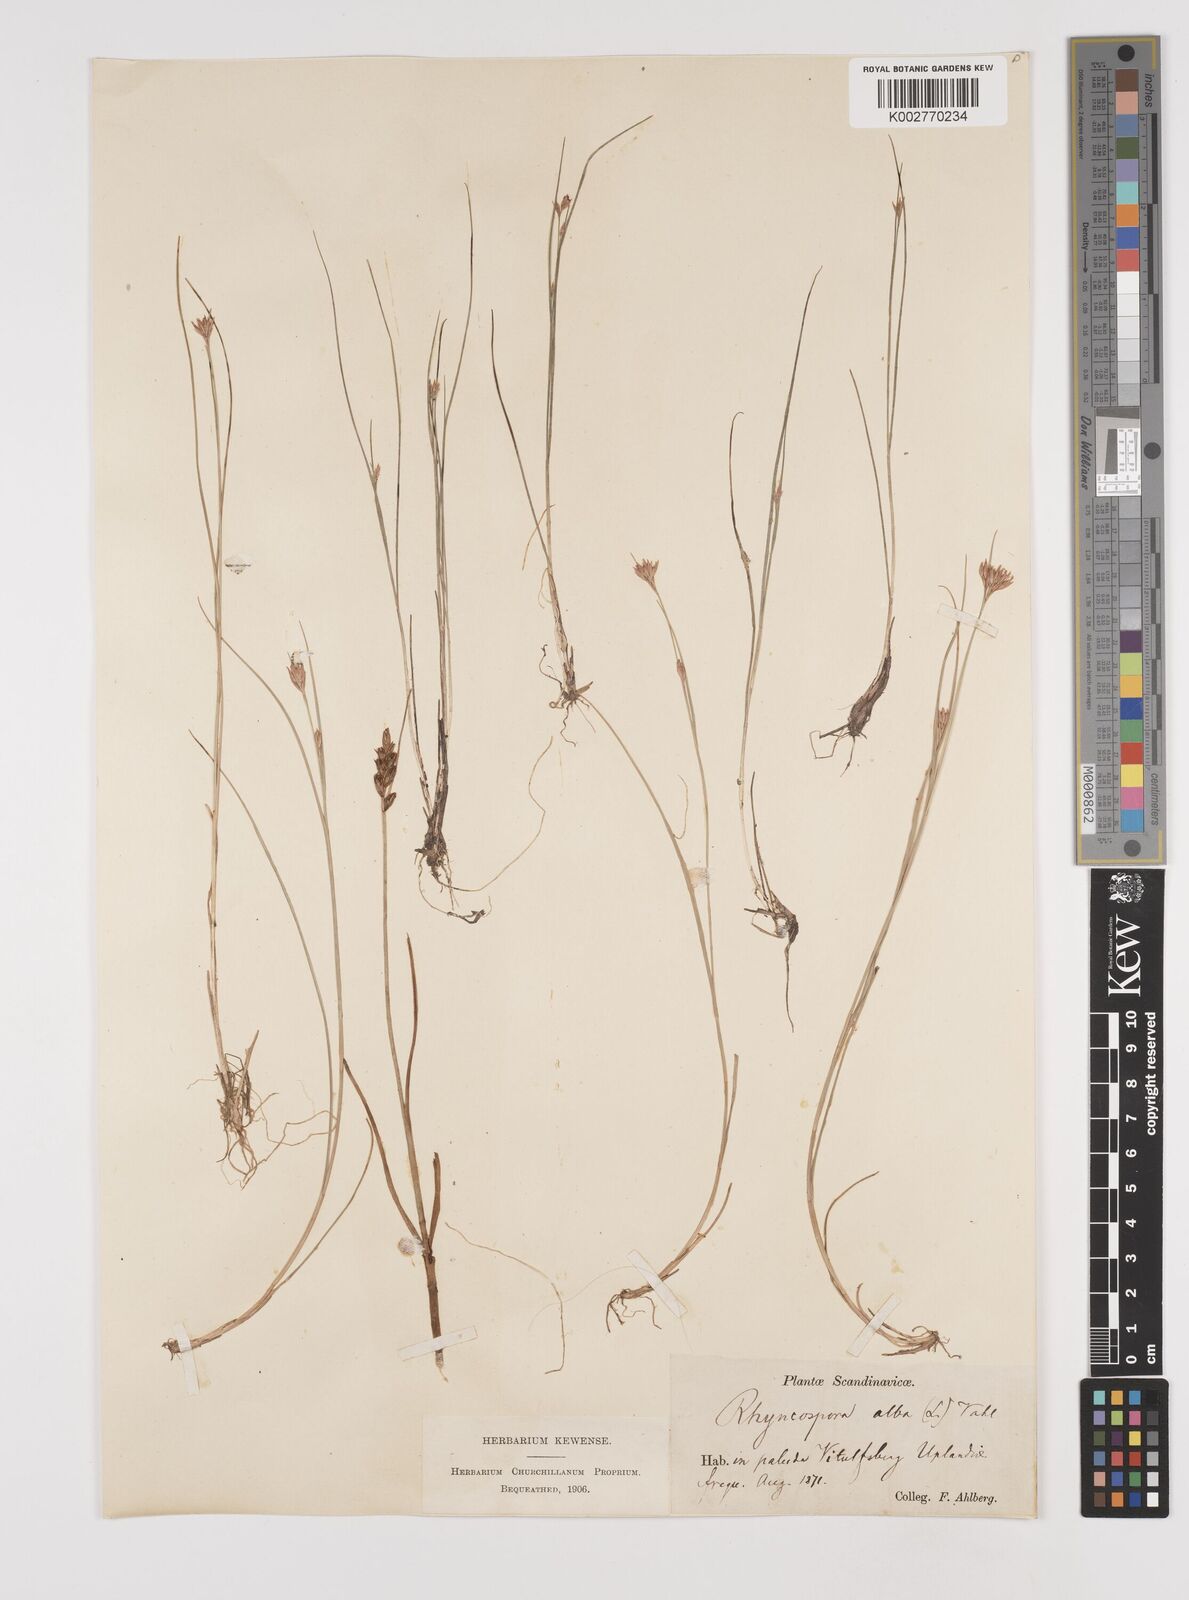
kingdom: Plantae
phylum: Tracheophyta
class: Liliopsida
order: Poales
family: Cyperaceae
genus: Rhynchospora
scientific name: Rhynchospora alba
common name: White beak-sedge
